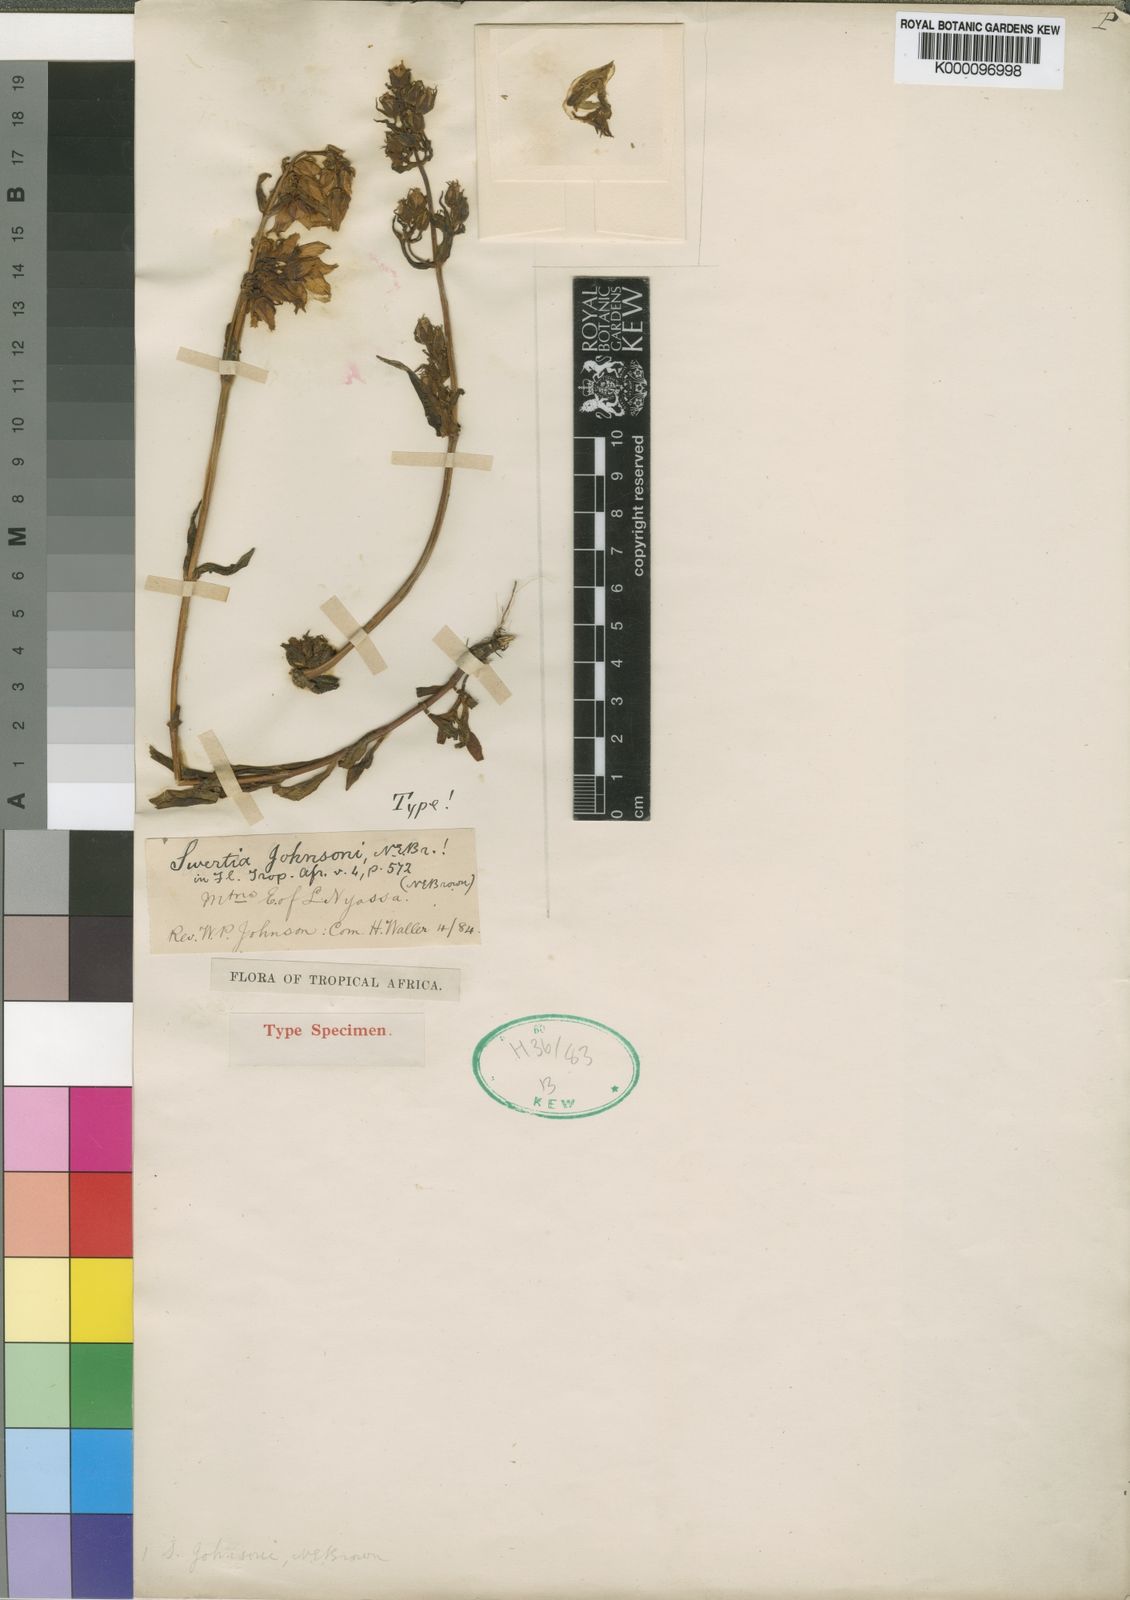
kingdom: Plantae
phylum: Tracheophyta
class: Magnoliopsida
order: Gentianales
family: Gentianaceae
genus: Swertia
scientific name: Swertia schimperi
